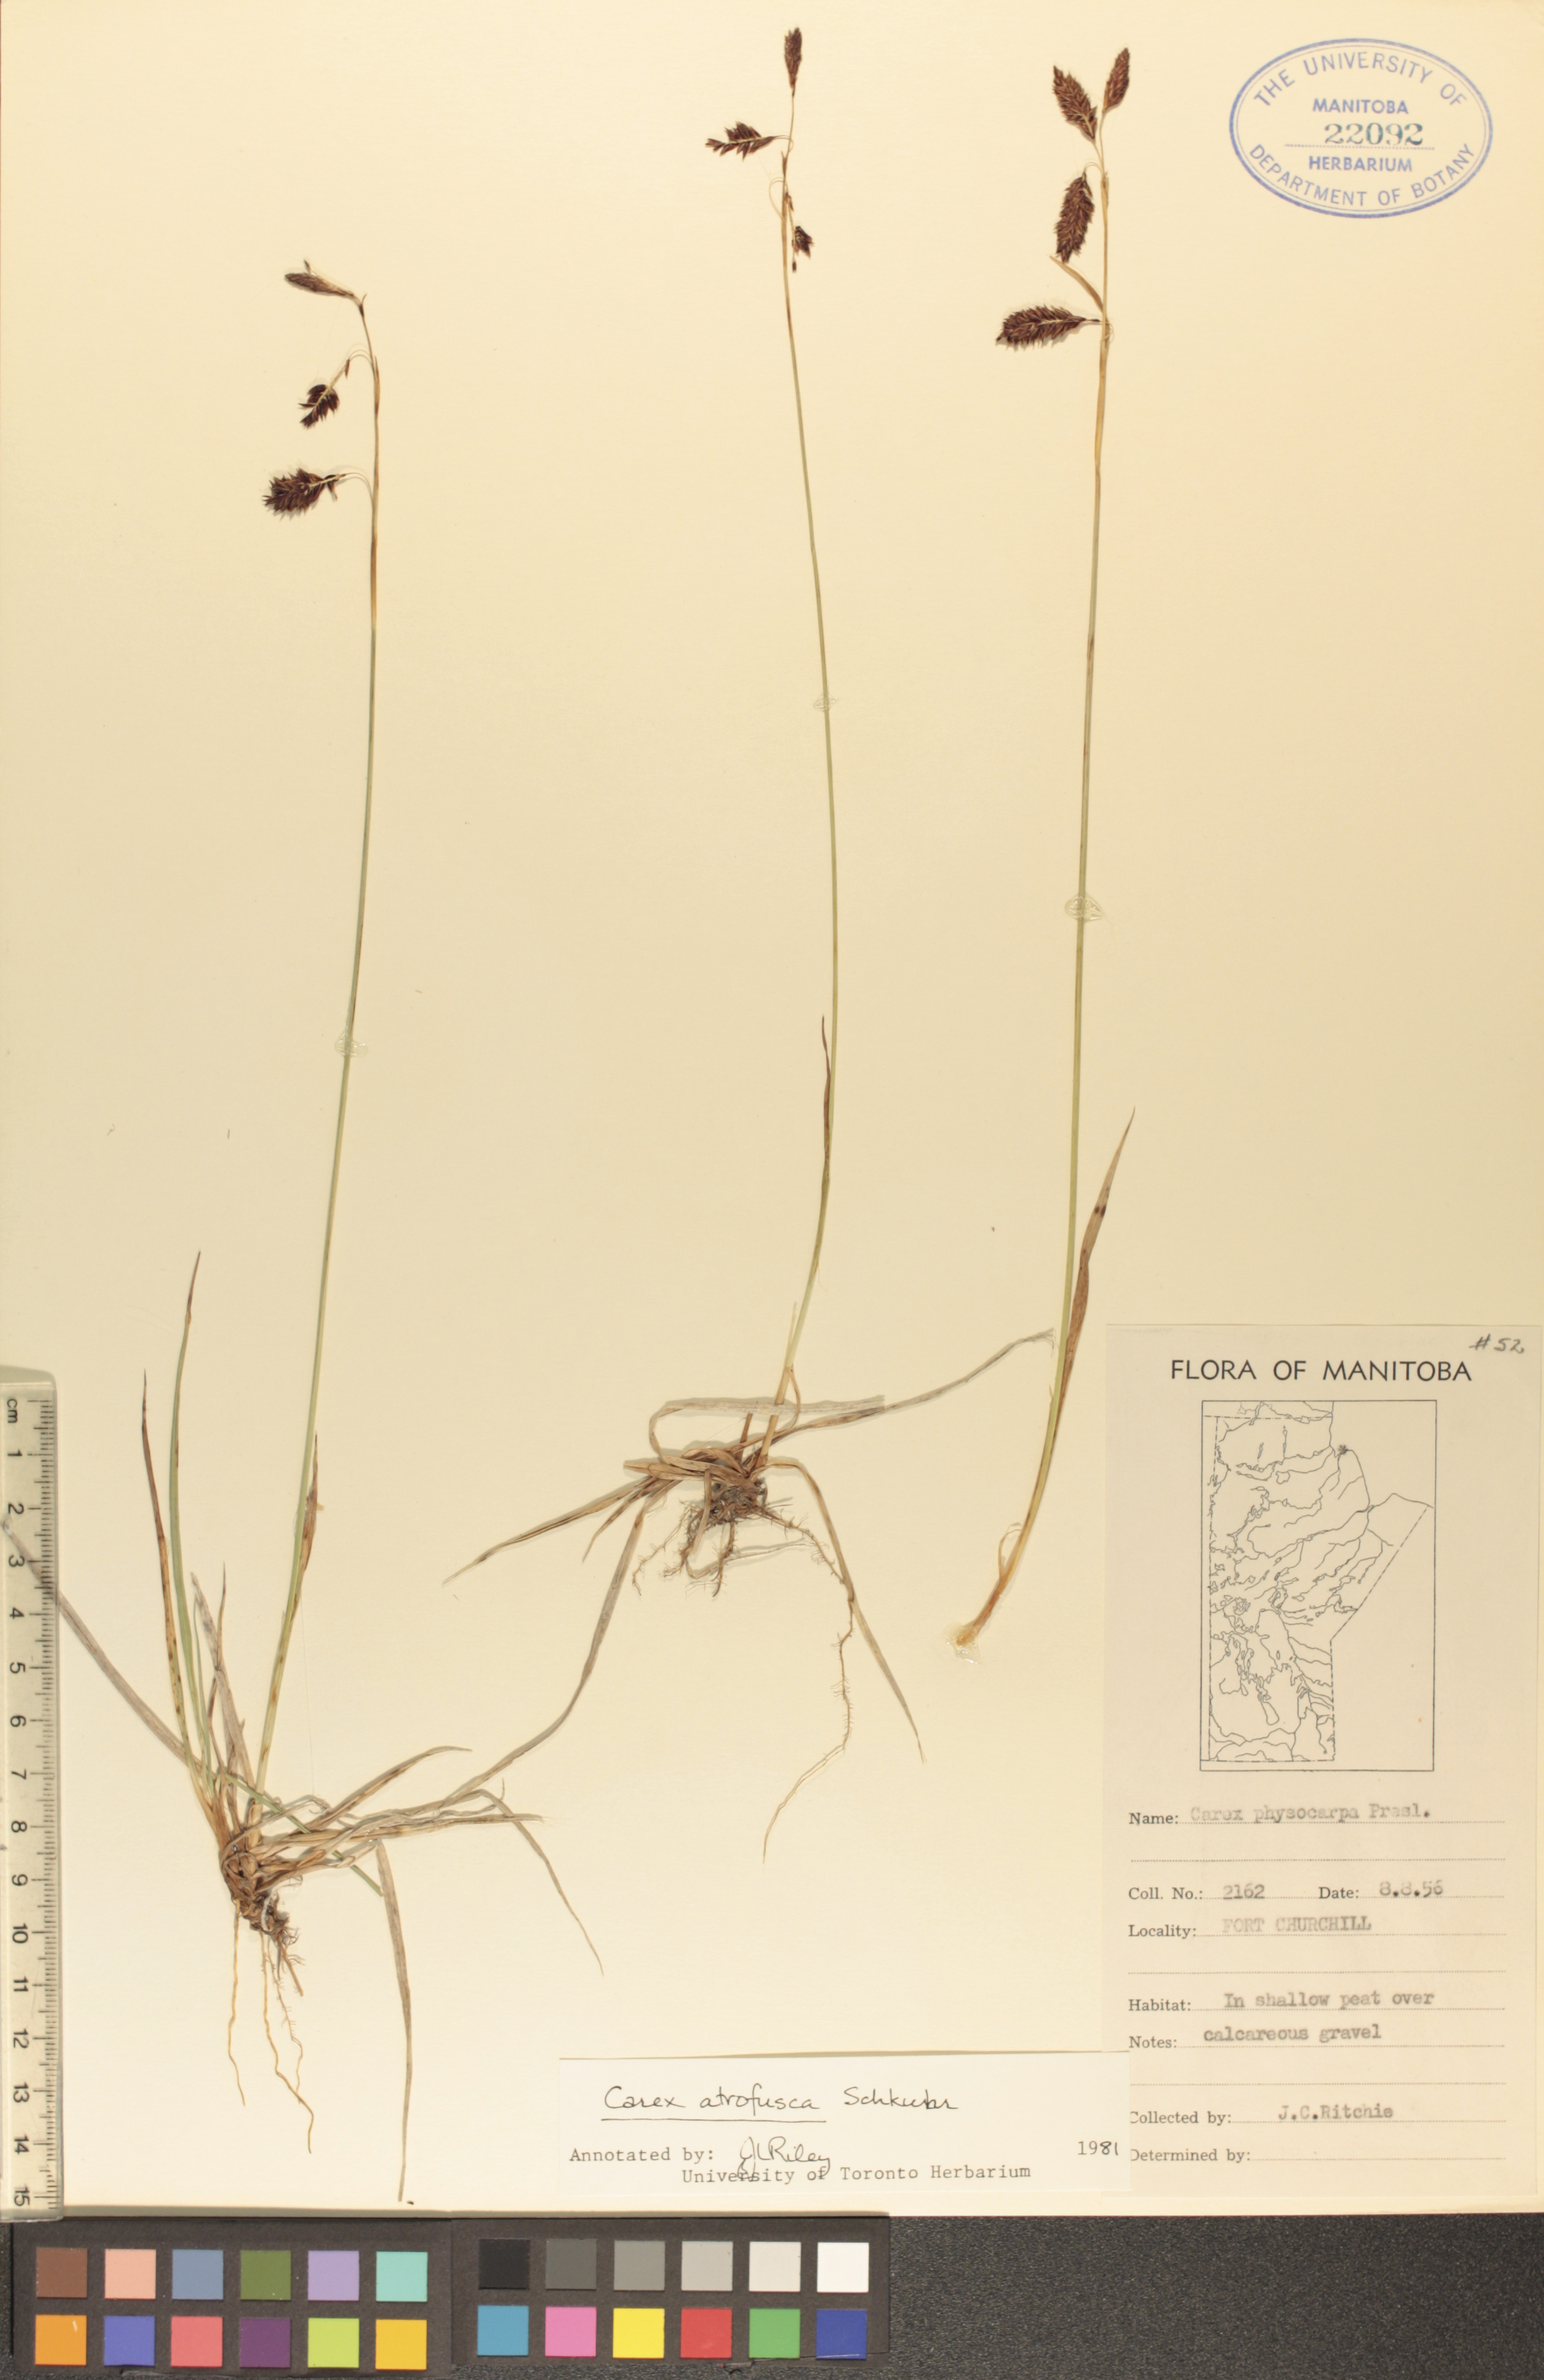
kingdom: Plantae
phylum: Tracheophyta
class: Liliopsida
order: Poales
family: Cyperaceae
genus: Carex
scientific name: Carex pichinchensis
